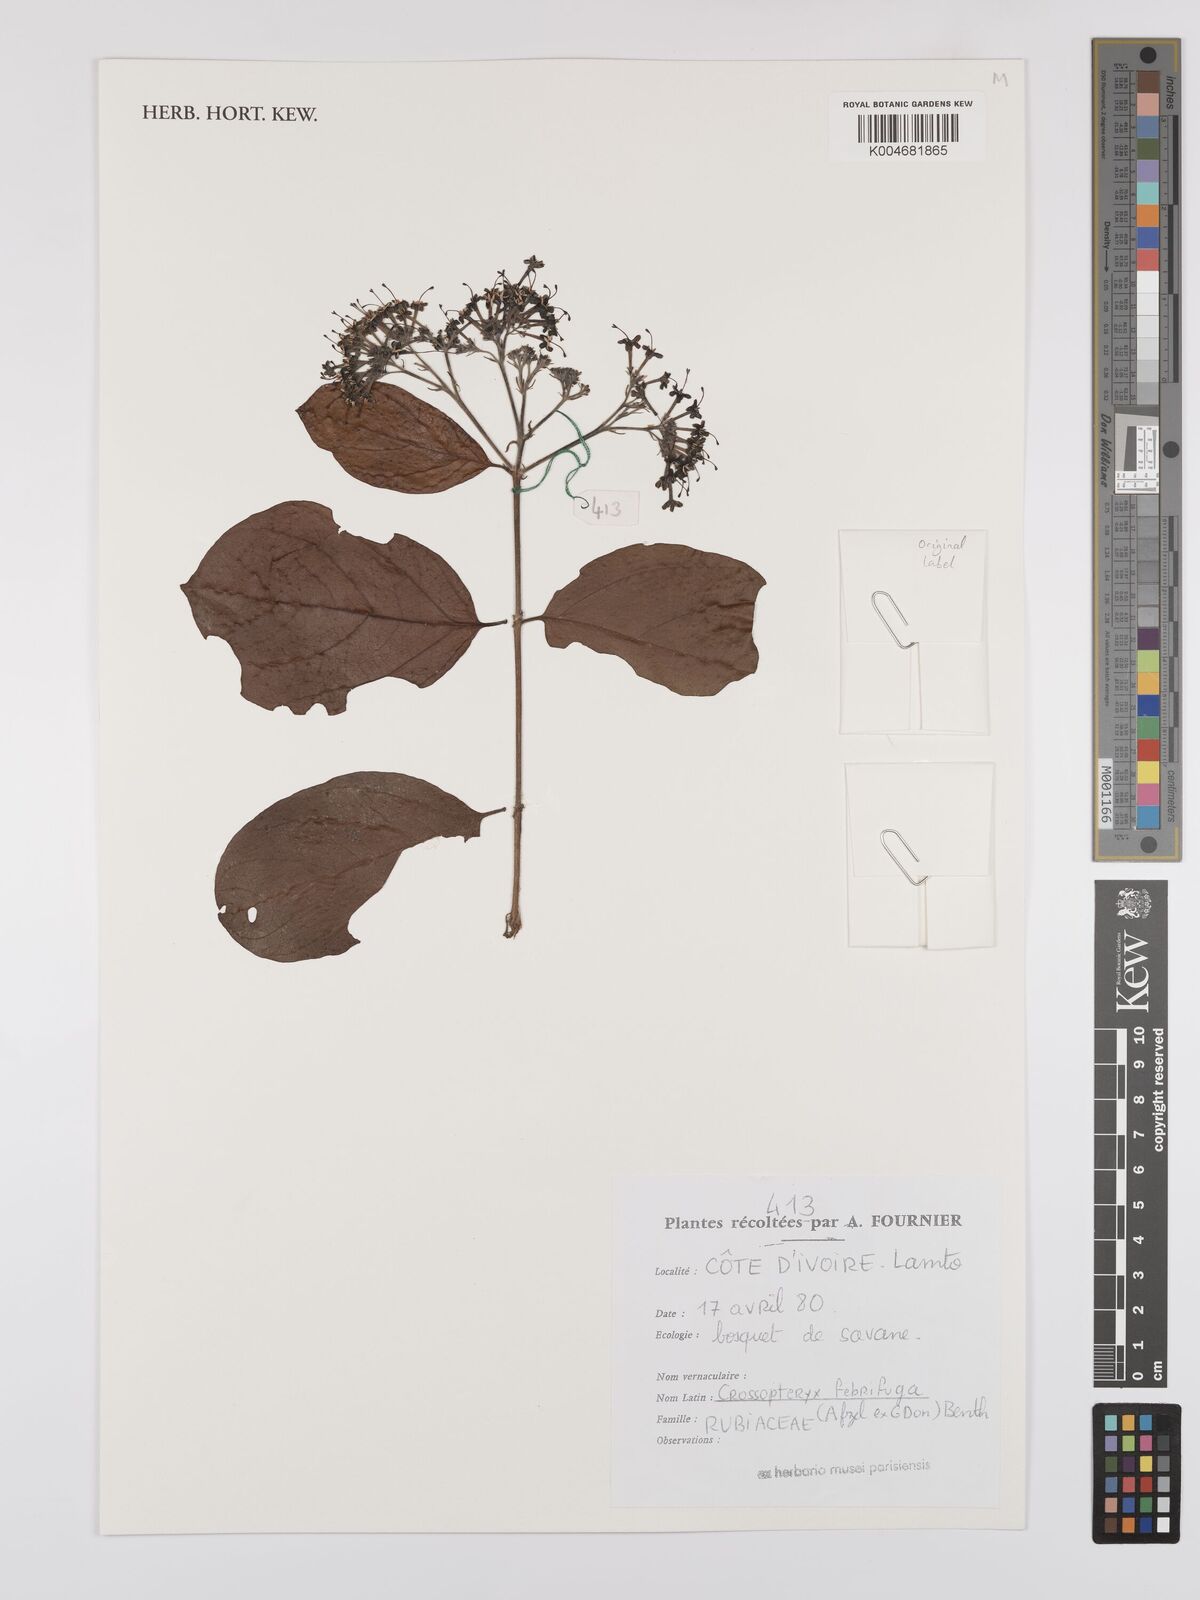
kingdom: Plantae
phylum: Tracheophyta
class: Magnoliopsida
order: Gentianales
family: Rubiaceae
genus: Crossopteryx
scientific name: Crossopteryx febrifuga
